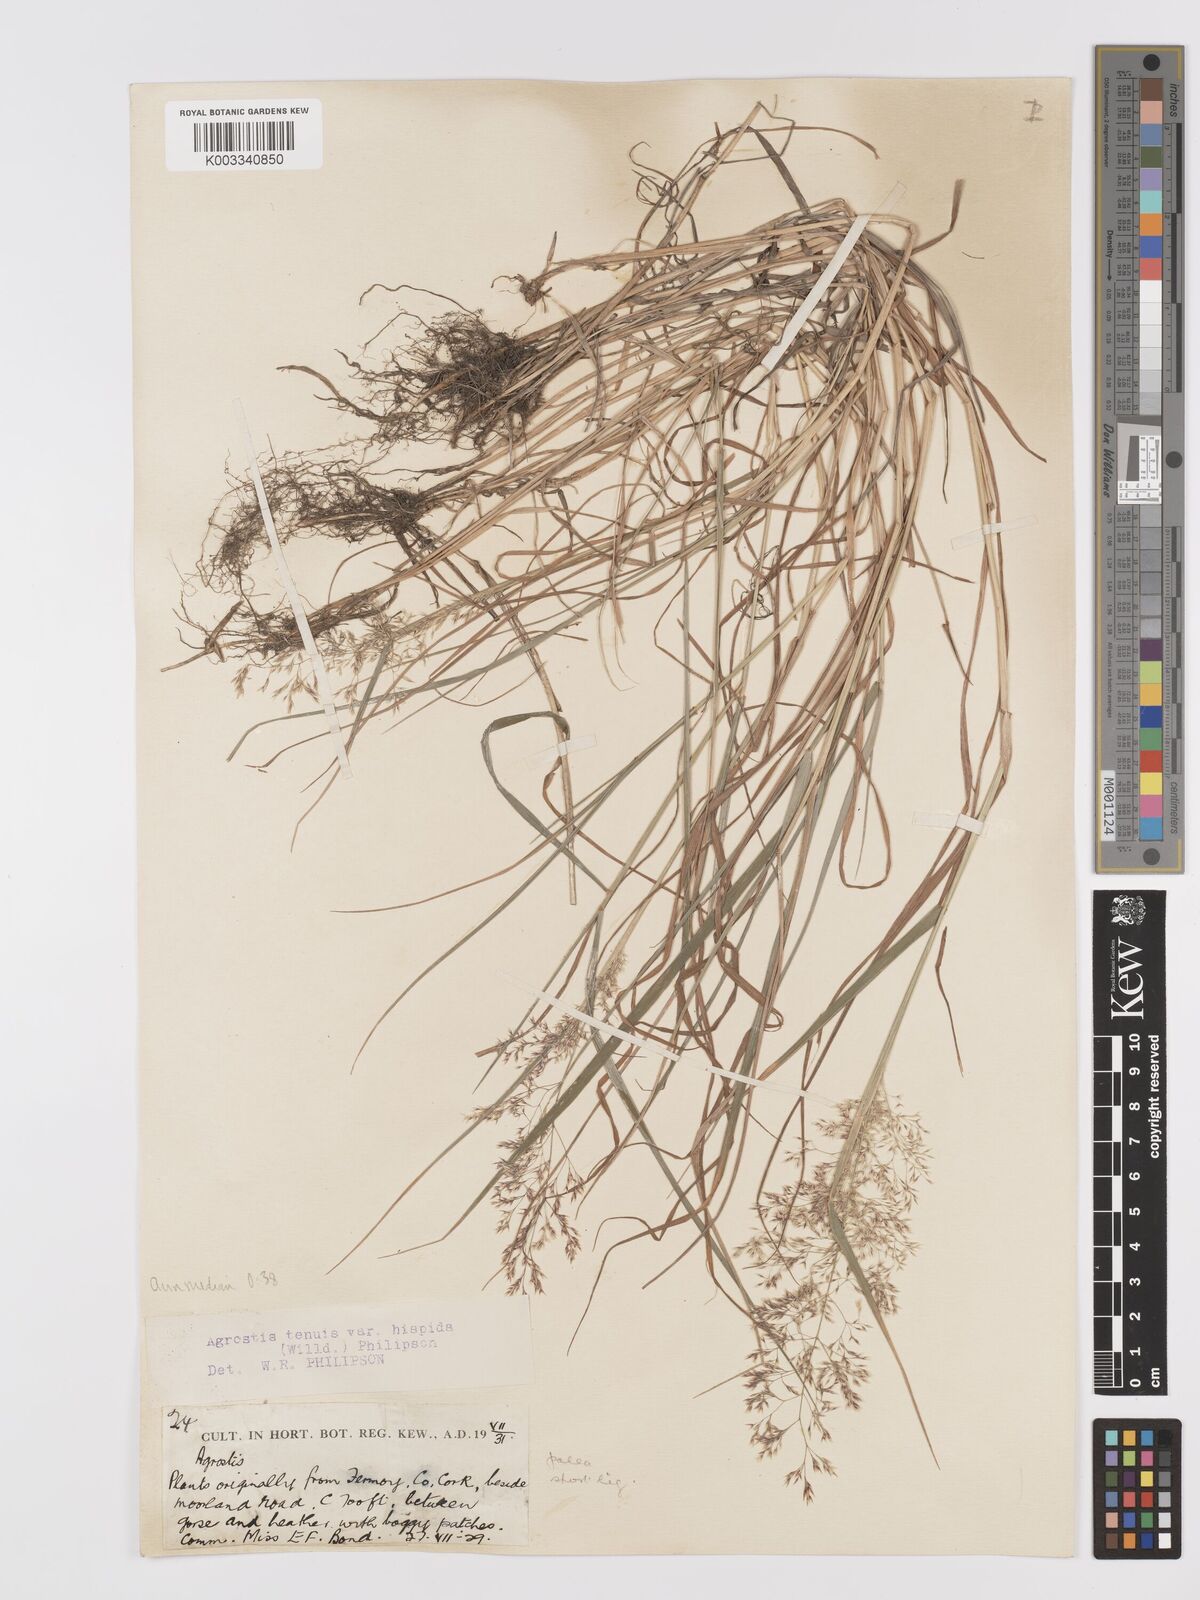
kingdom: Plantae
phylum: Tracheophyta
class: Liliopsida
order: Poales
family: Poaceae
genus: Agrostis
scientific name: Agrostis capillaris
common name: Colonial bentgrass
